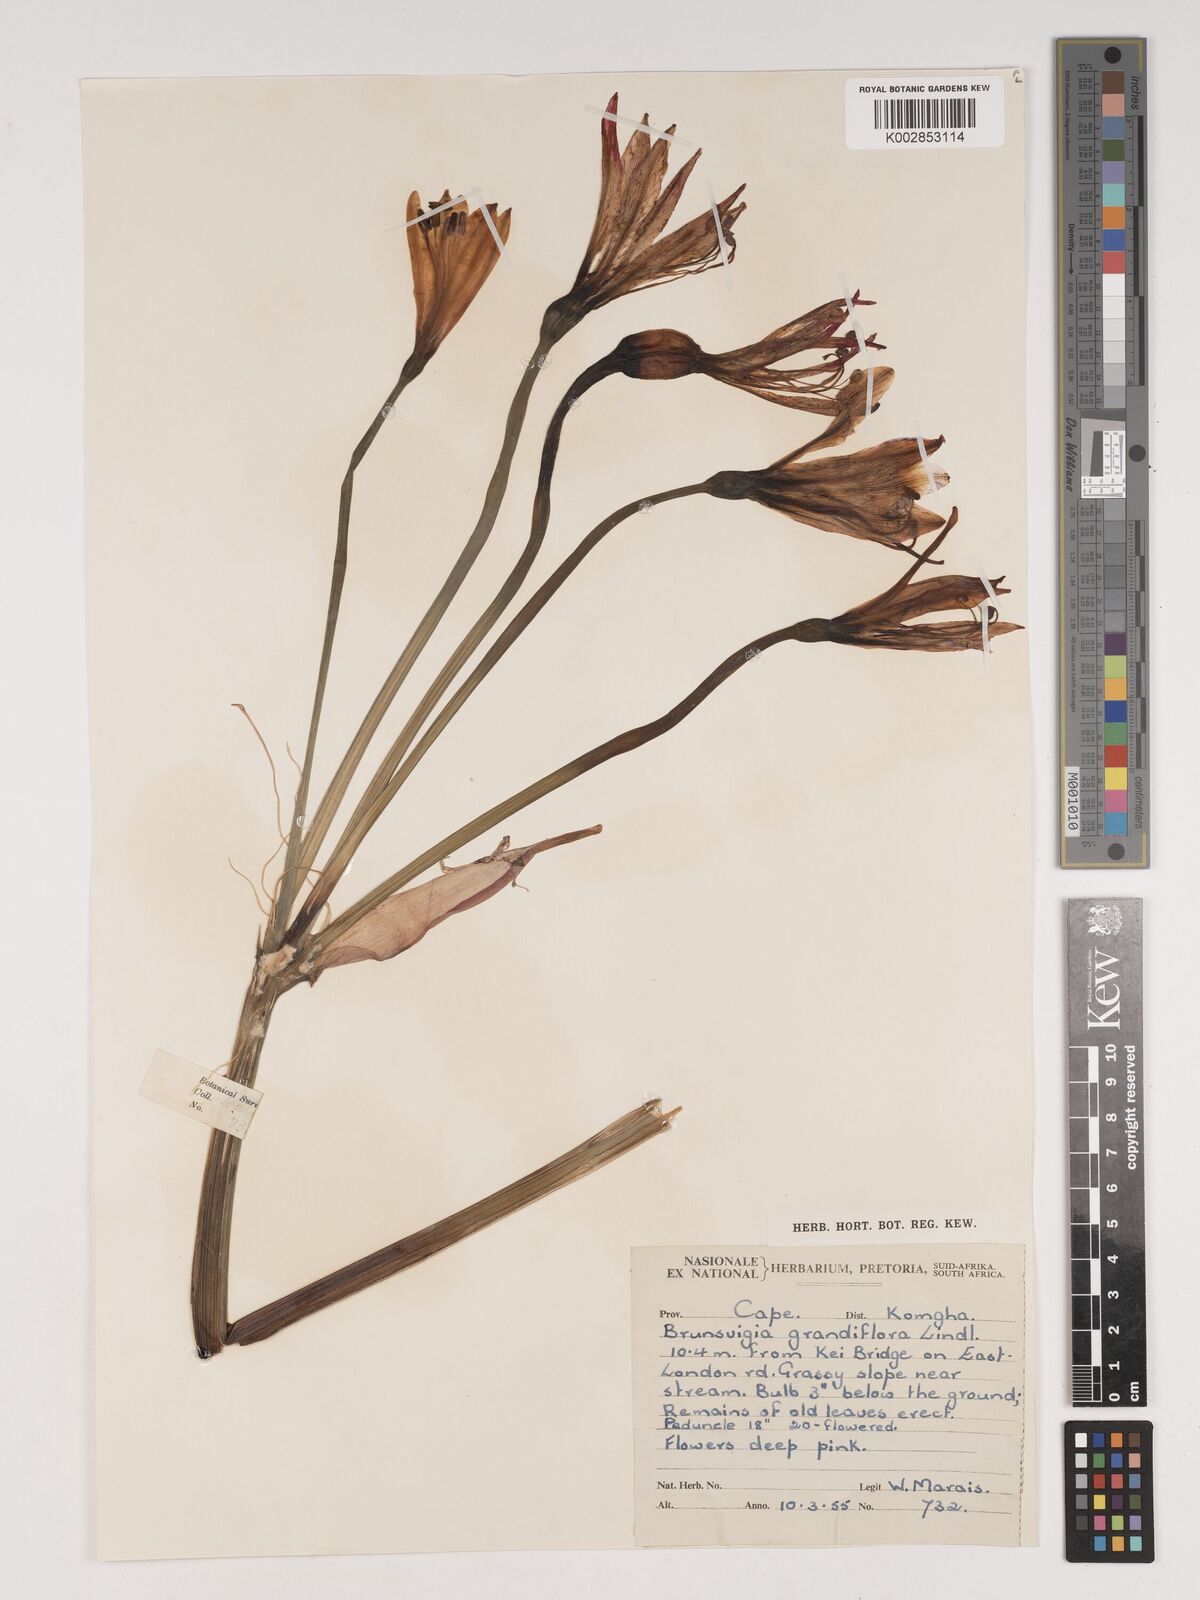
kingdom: Plantae
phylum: Tracheophyta
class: Liliopsida
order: Asparagales
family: Amaryllidaceae
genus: Brunsvigia
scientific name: Brunsvigia grandiflora
